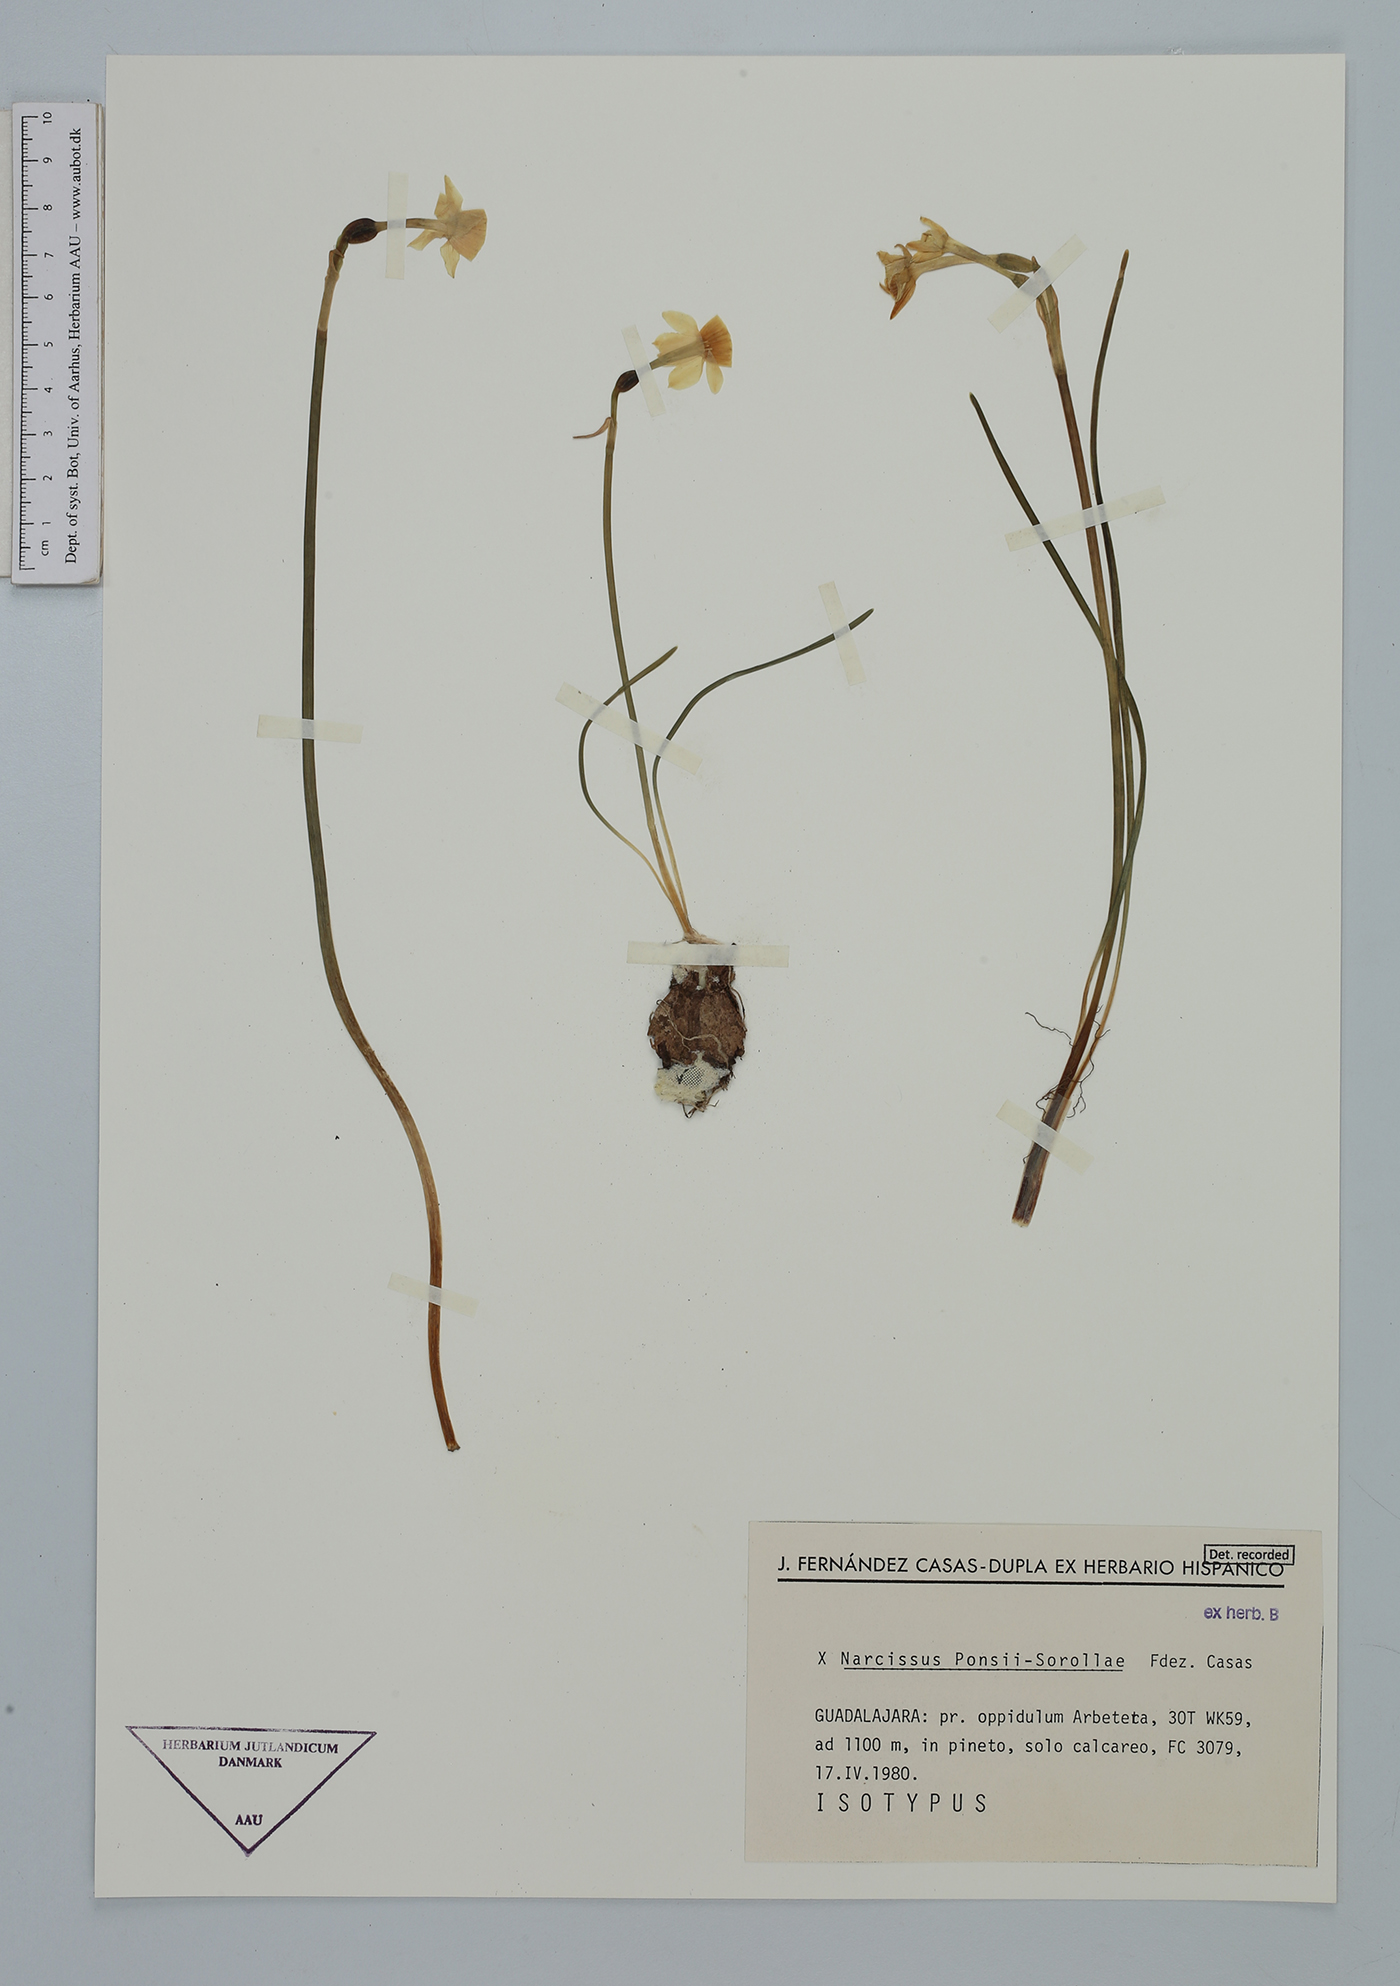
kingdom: Plantae
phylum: Tracheophyta
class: Liliopsida
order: Asparagales
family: Amaryllidaceae
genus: Narcissus
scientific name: Narcissus
